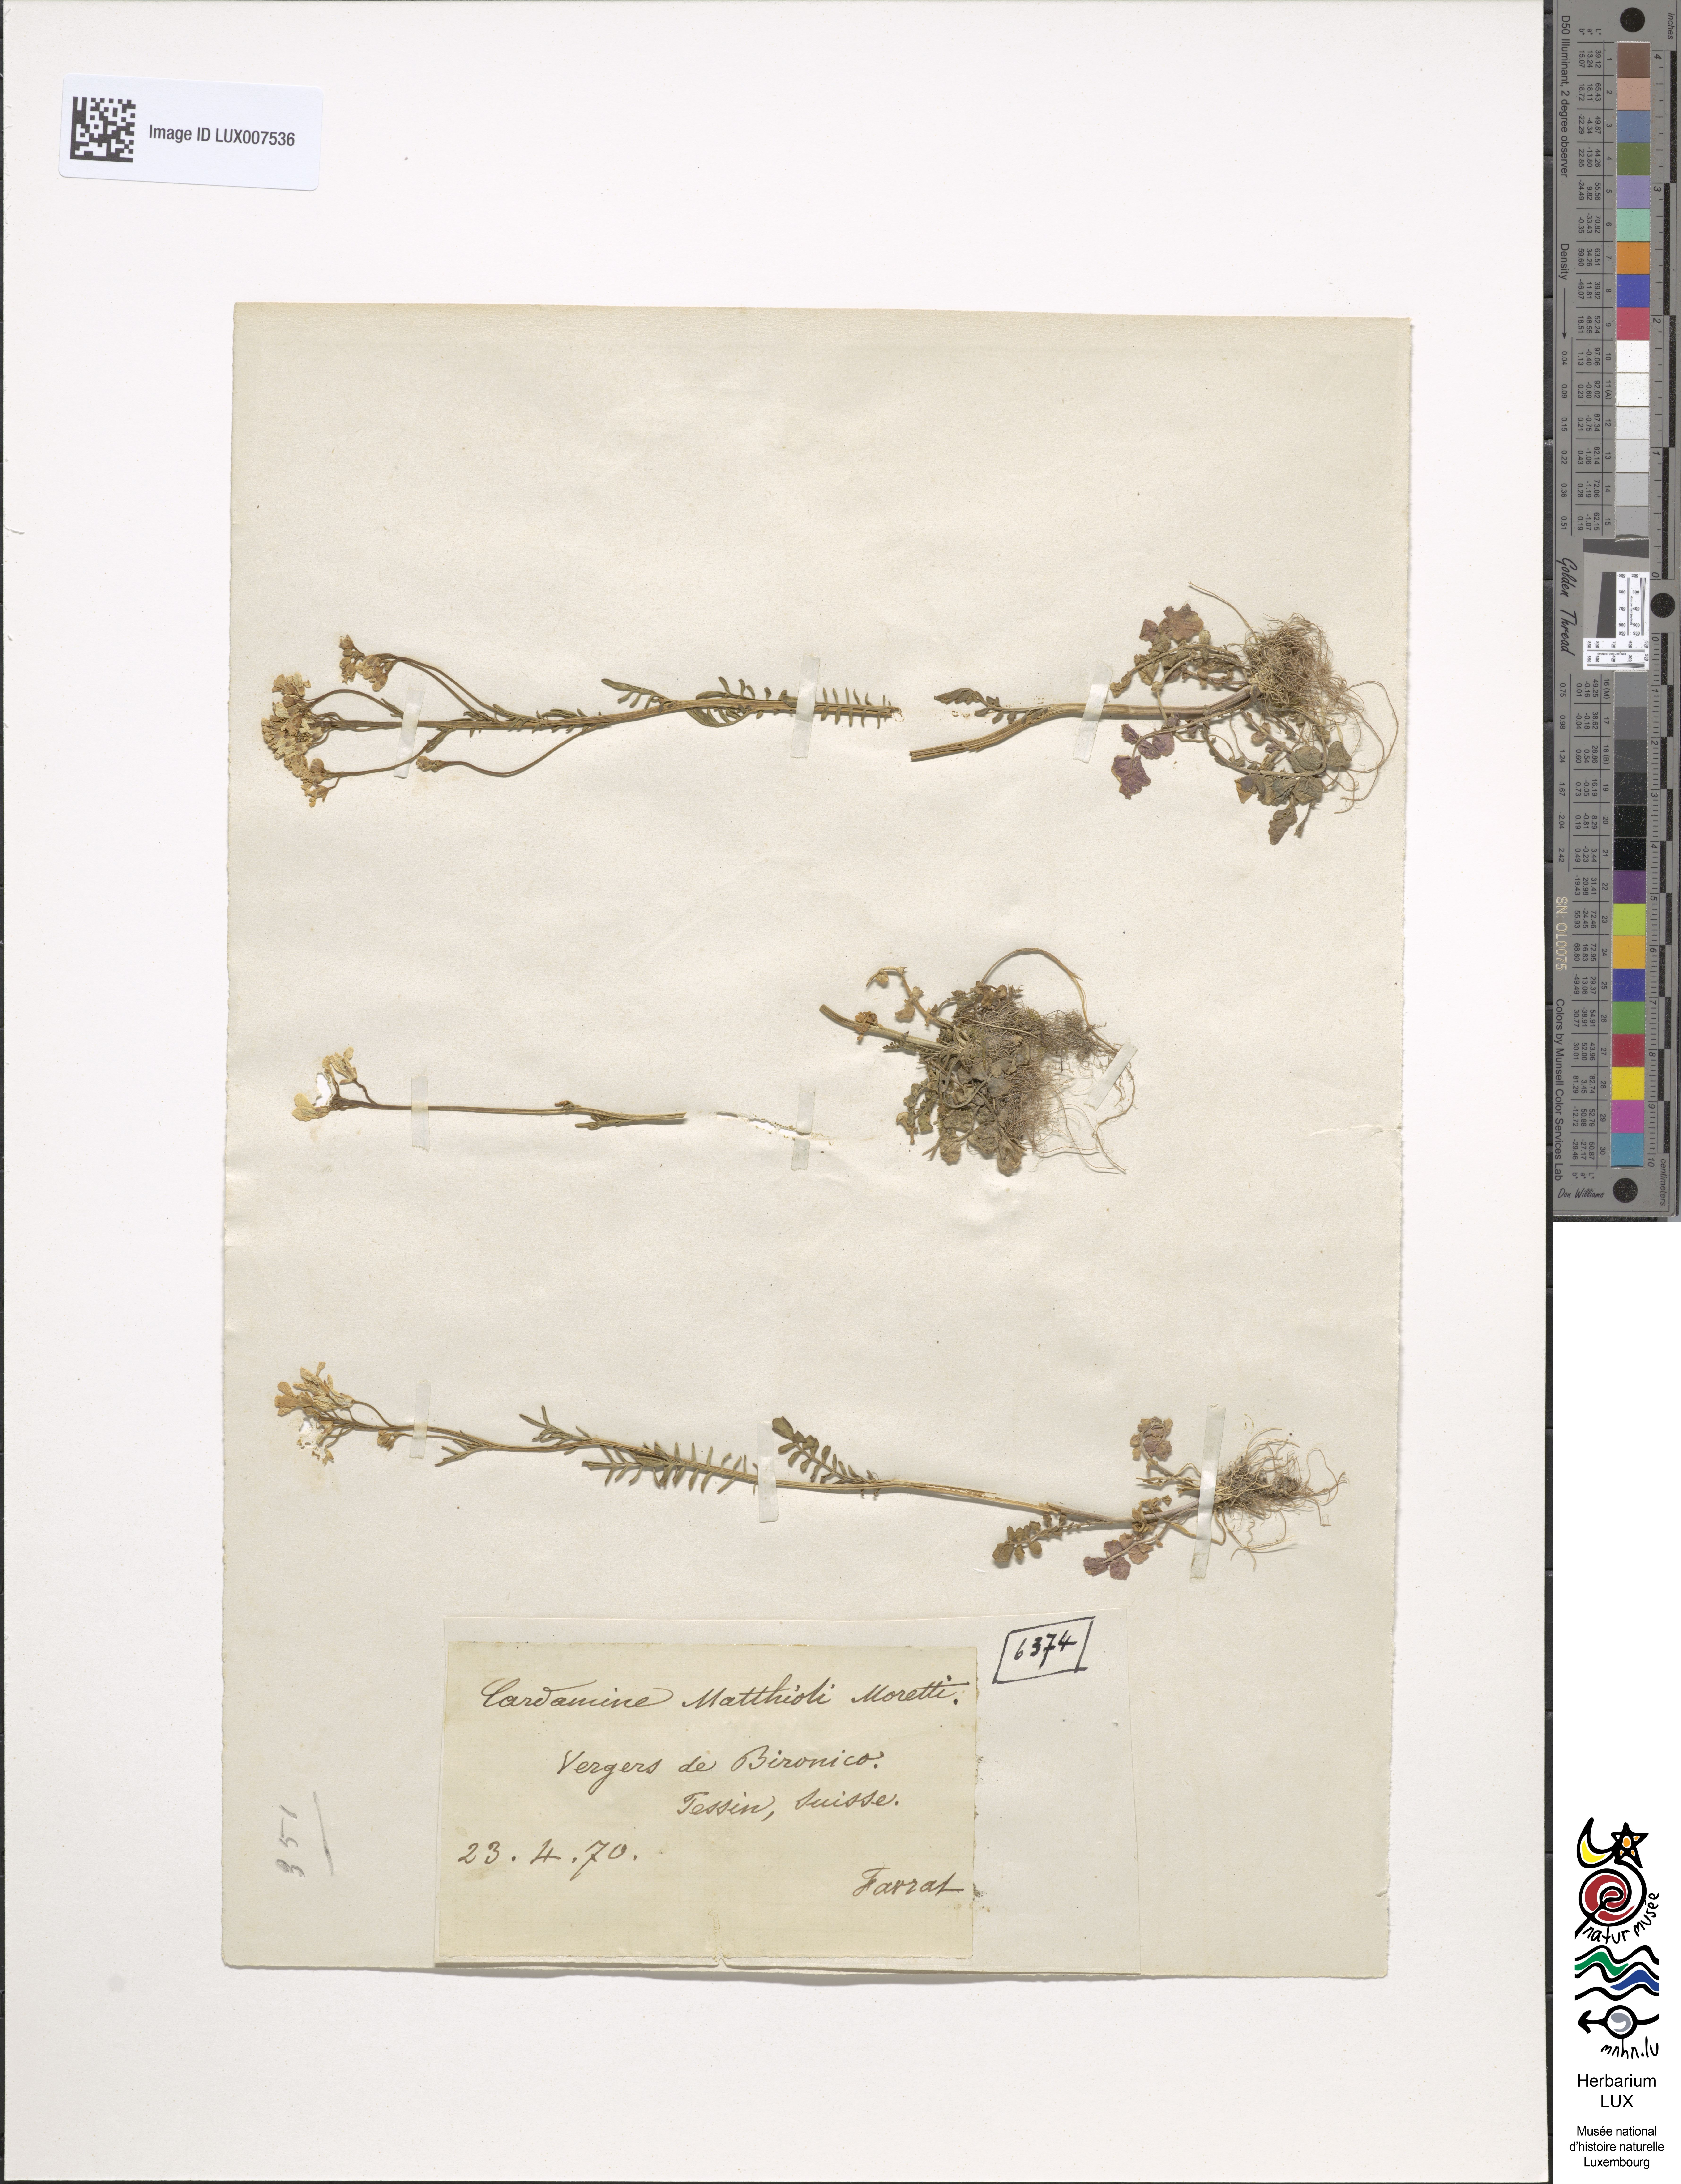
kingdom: Plantae
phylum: Tracheophyta
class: Magnoliopsida
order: Brassicales
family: Brassicaceae
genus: Cardamine
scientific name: Cardamine matthioli
